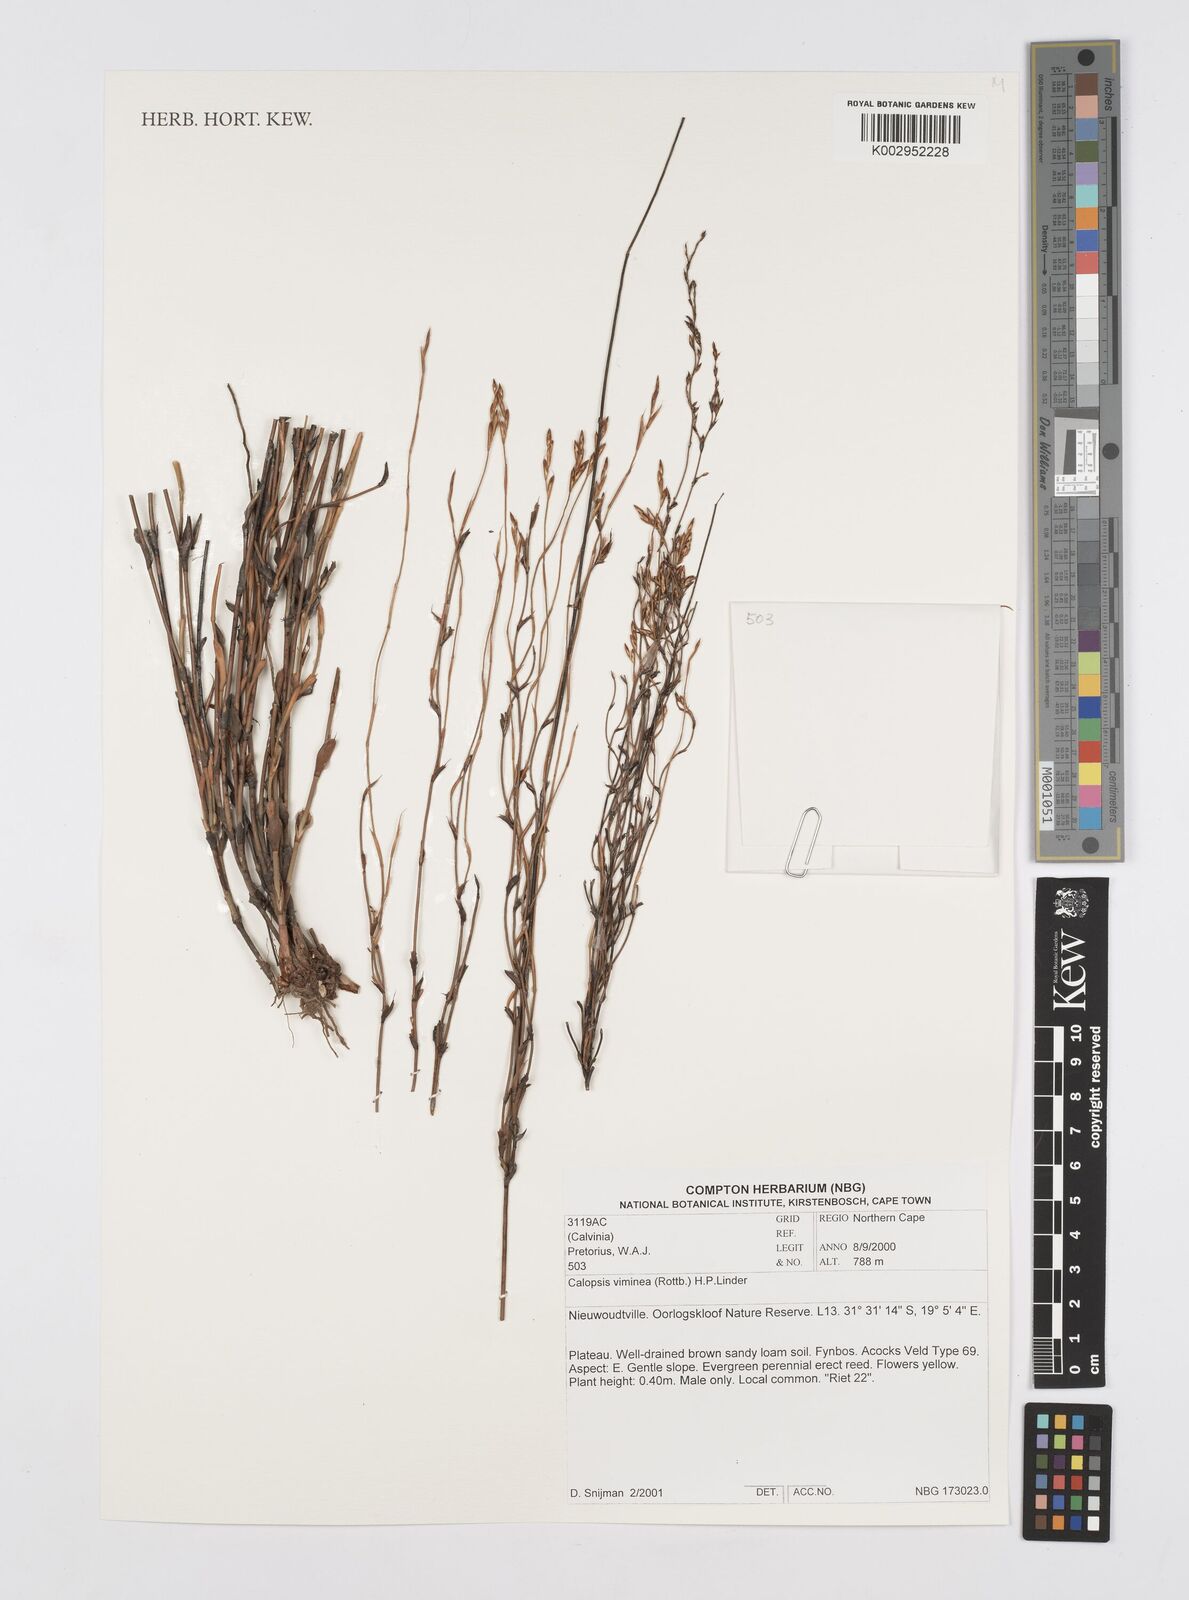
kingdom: Plantae
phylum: Tracheophyta
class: Liliopsida
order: Poales
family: Restionaceae
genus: Restio
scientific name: Restio vimineus
